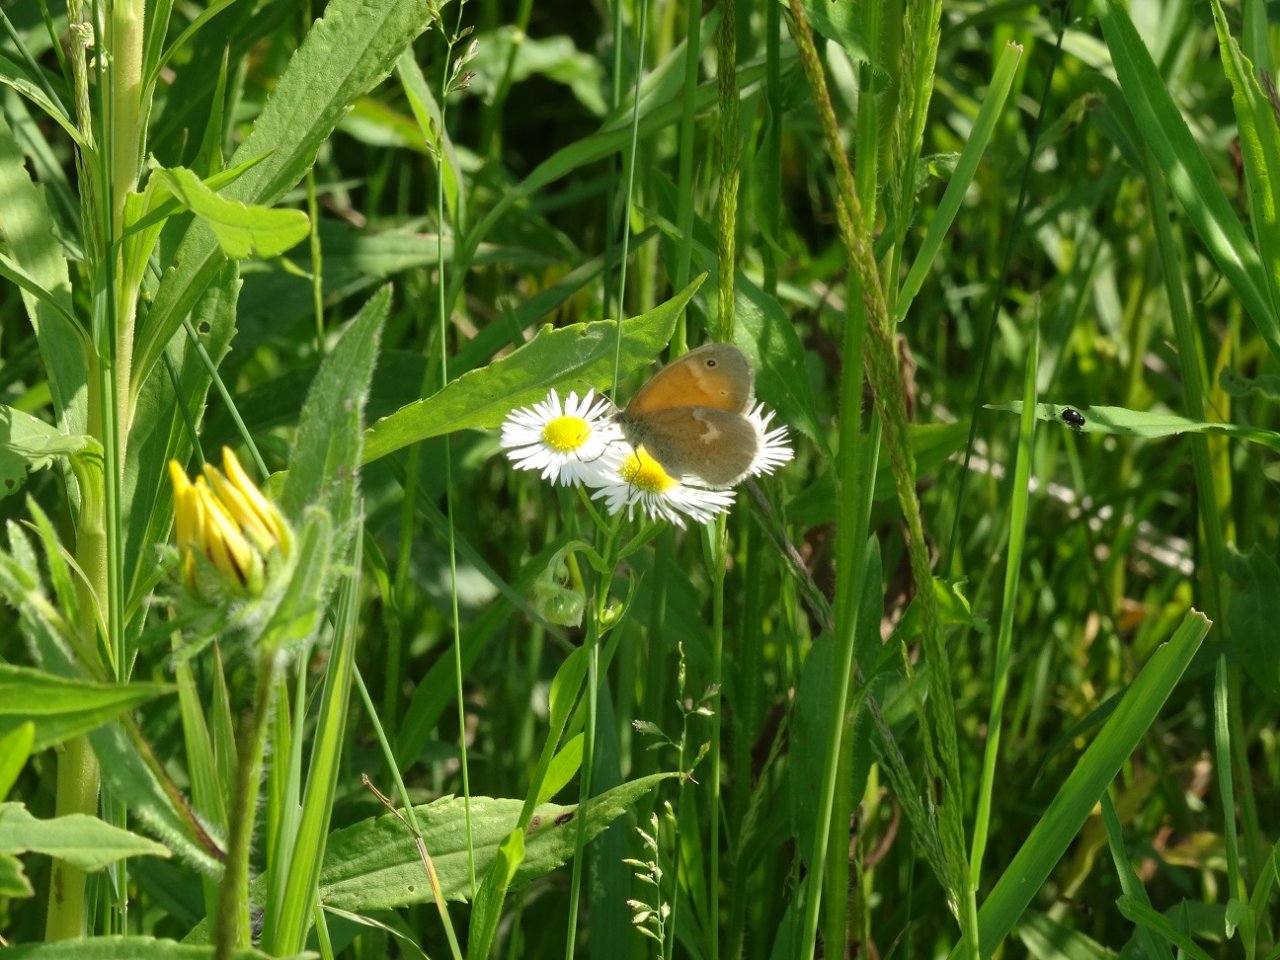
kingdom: Animalia
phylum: Arthropoda
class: Insecta
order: Lepidoptera
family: Nymphalidae
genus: Coenonympha
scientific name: Coenonympha tullia
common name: Large Heath
